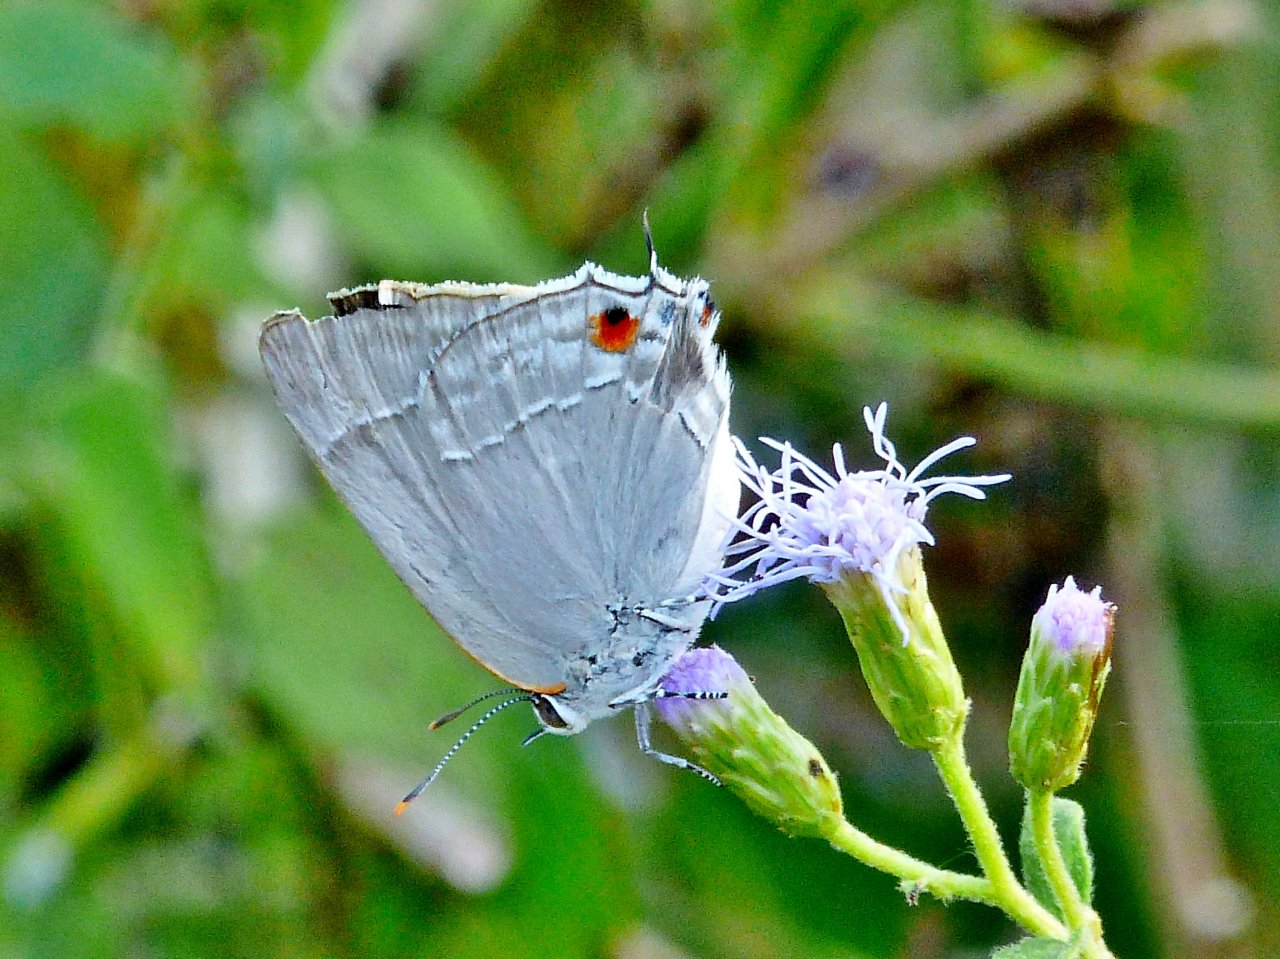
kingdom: Animalia
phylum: Arthropoda
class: Insecta
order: Lepidoptera
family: Lycaenidae
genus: Thecla
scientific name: Thecla marius
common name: Marius Hairstreak
